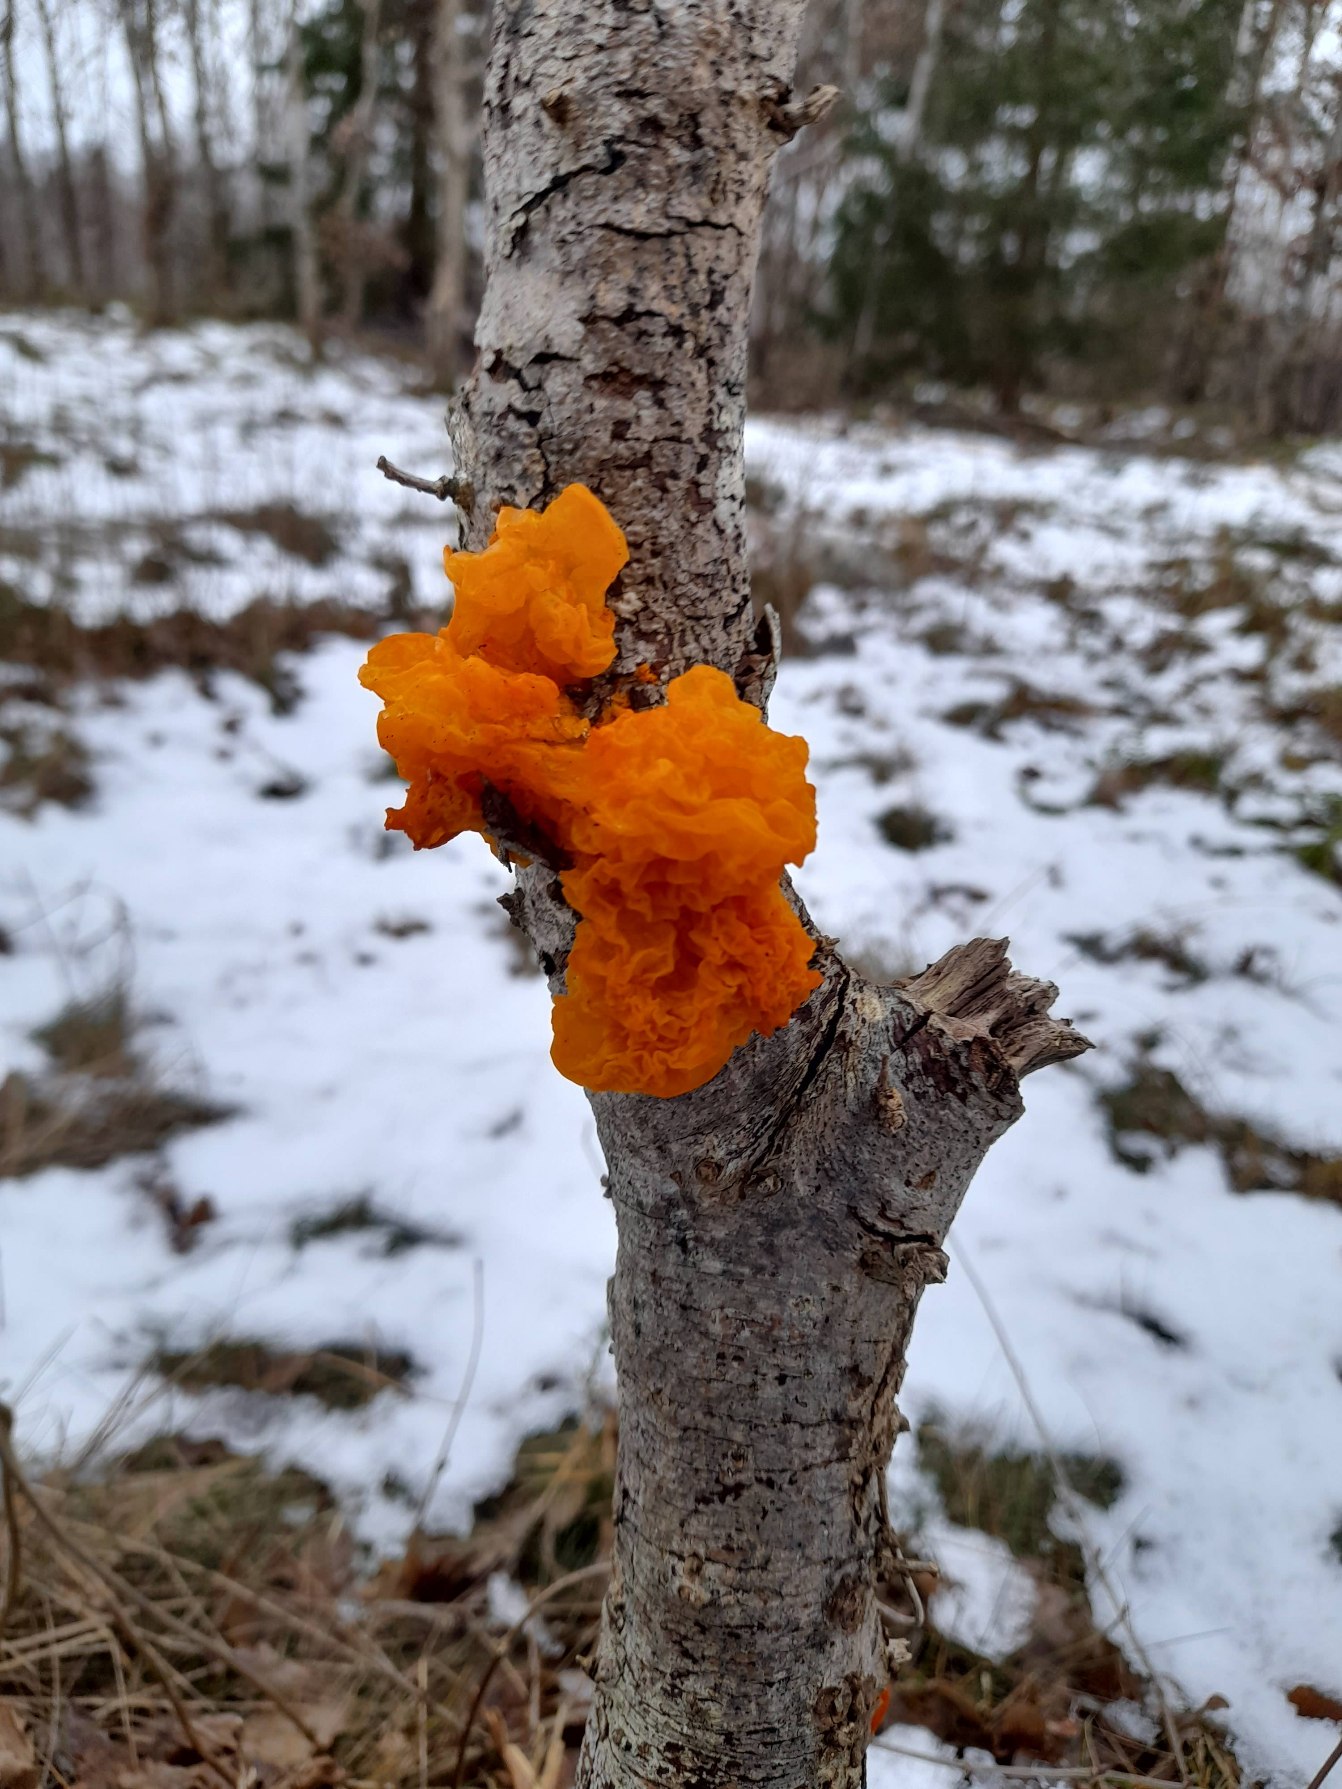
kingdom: Fungi
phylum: Basidiomycota
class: Tremellomycetes
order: Tremellales
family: Tremellaceae
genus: Tremella
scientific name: Tremella mesenterica
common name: Gul bævresvamp
